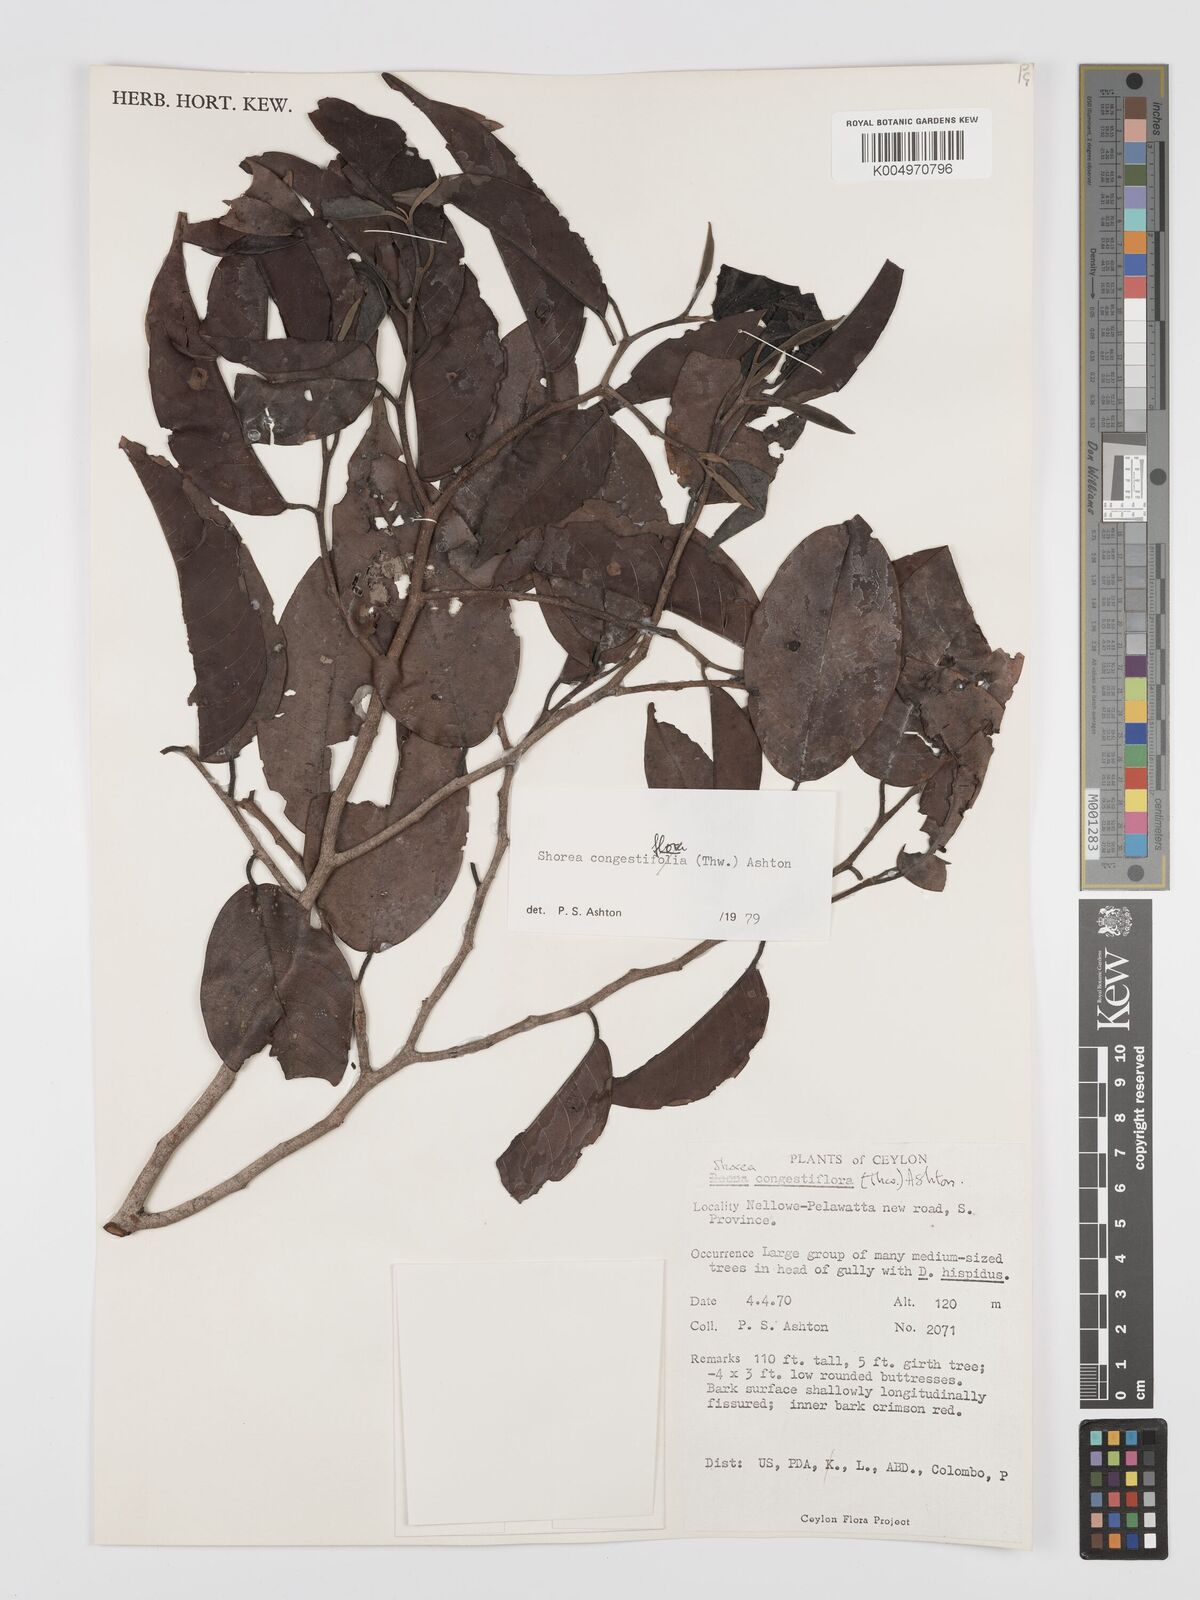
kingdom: Plantae
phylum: Tracheophyta
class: Magnoliopsida
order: Malvales
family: Dipterocarpaceae
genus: Doona
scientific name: Doona congestiflora
